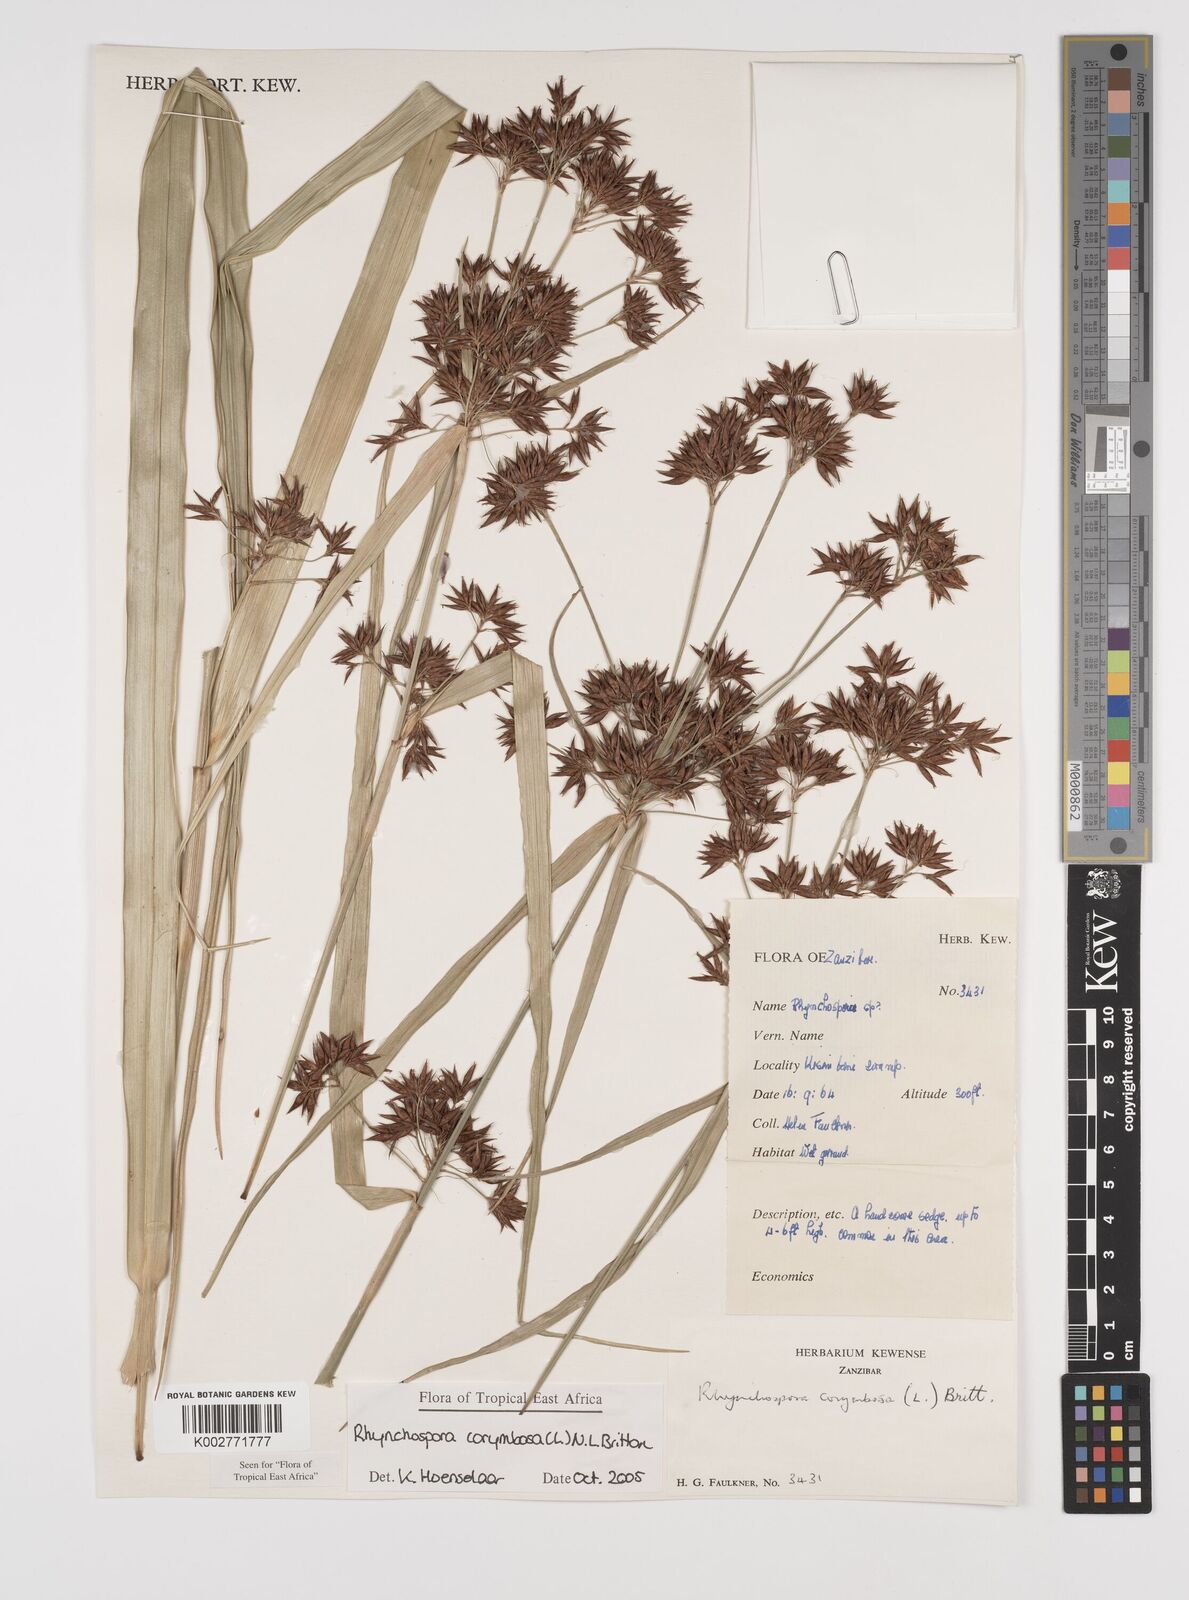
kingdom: Plantae
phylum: Tracheophyta
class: Liliopsida
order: Poales
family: Cyperaceae
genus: Rhynchospora
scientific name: Rhynchospora corymbosa
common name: Golden beak sedge
